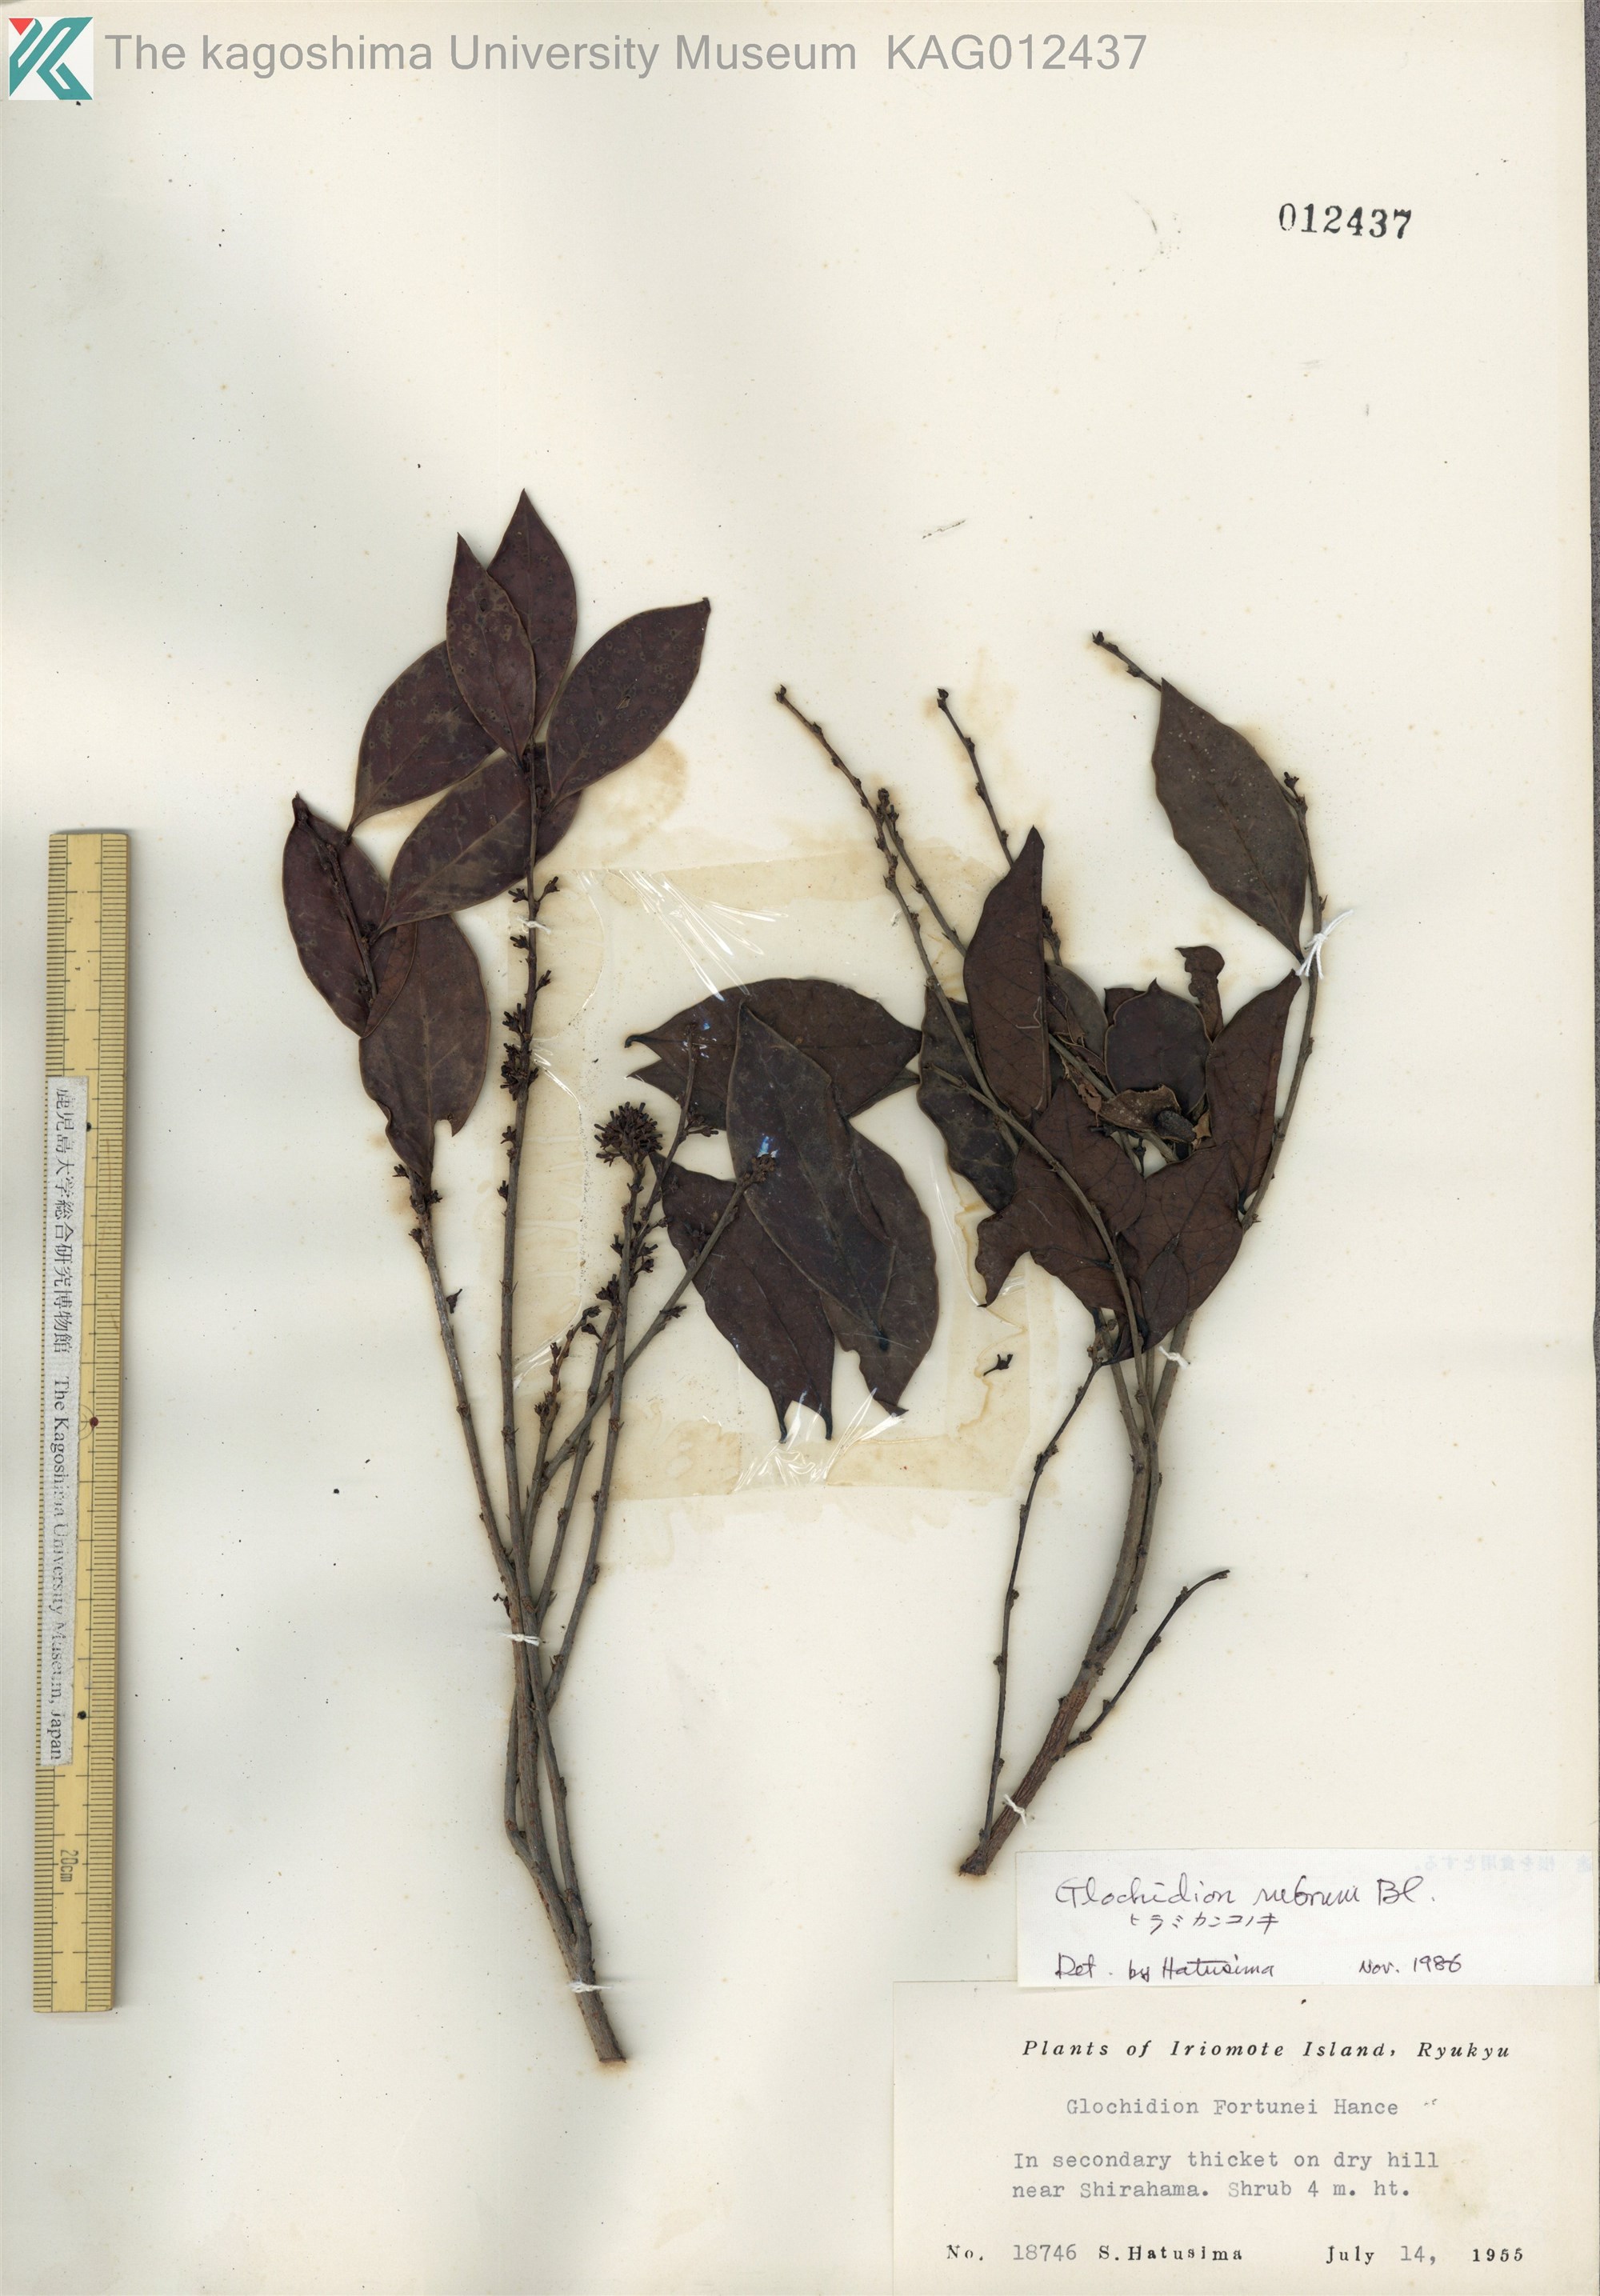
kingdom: Plantae
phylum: Tracheophyta
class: Magnoliopsida
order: Malpighiales
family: Phyllanthaceae
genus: Glochidion
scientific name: Glochidion rubrum
